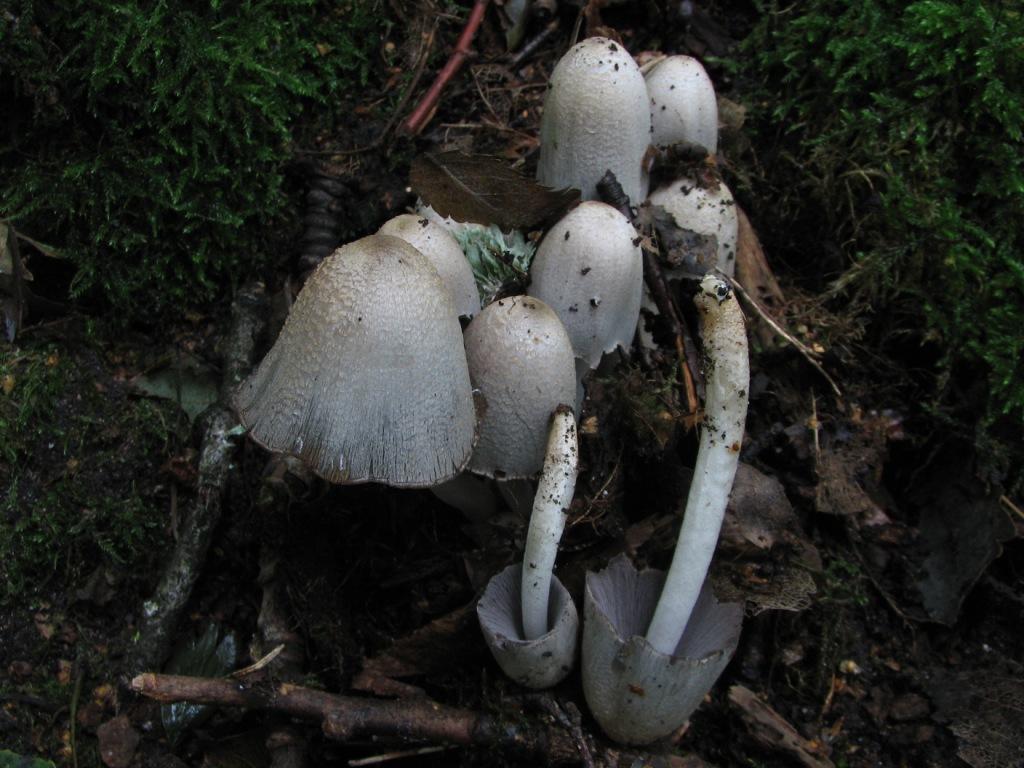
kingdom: Fungi
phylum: Basidiomycota
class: Agaricomycetes
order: Agaricales
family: Psathyrellaceae
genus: Coprinopsis
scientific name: Coprinopsis atramentaria
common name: almindelig blækhat
